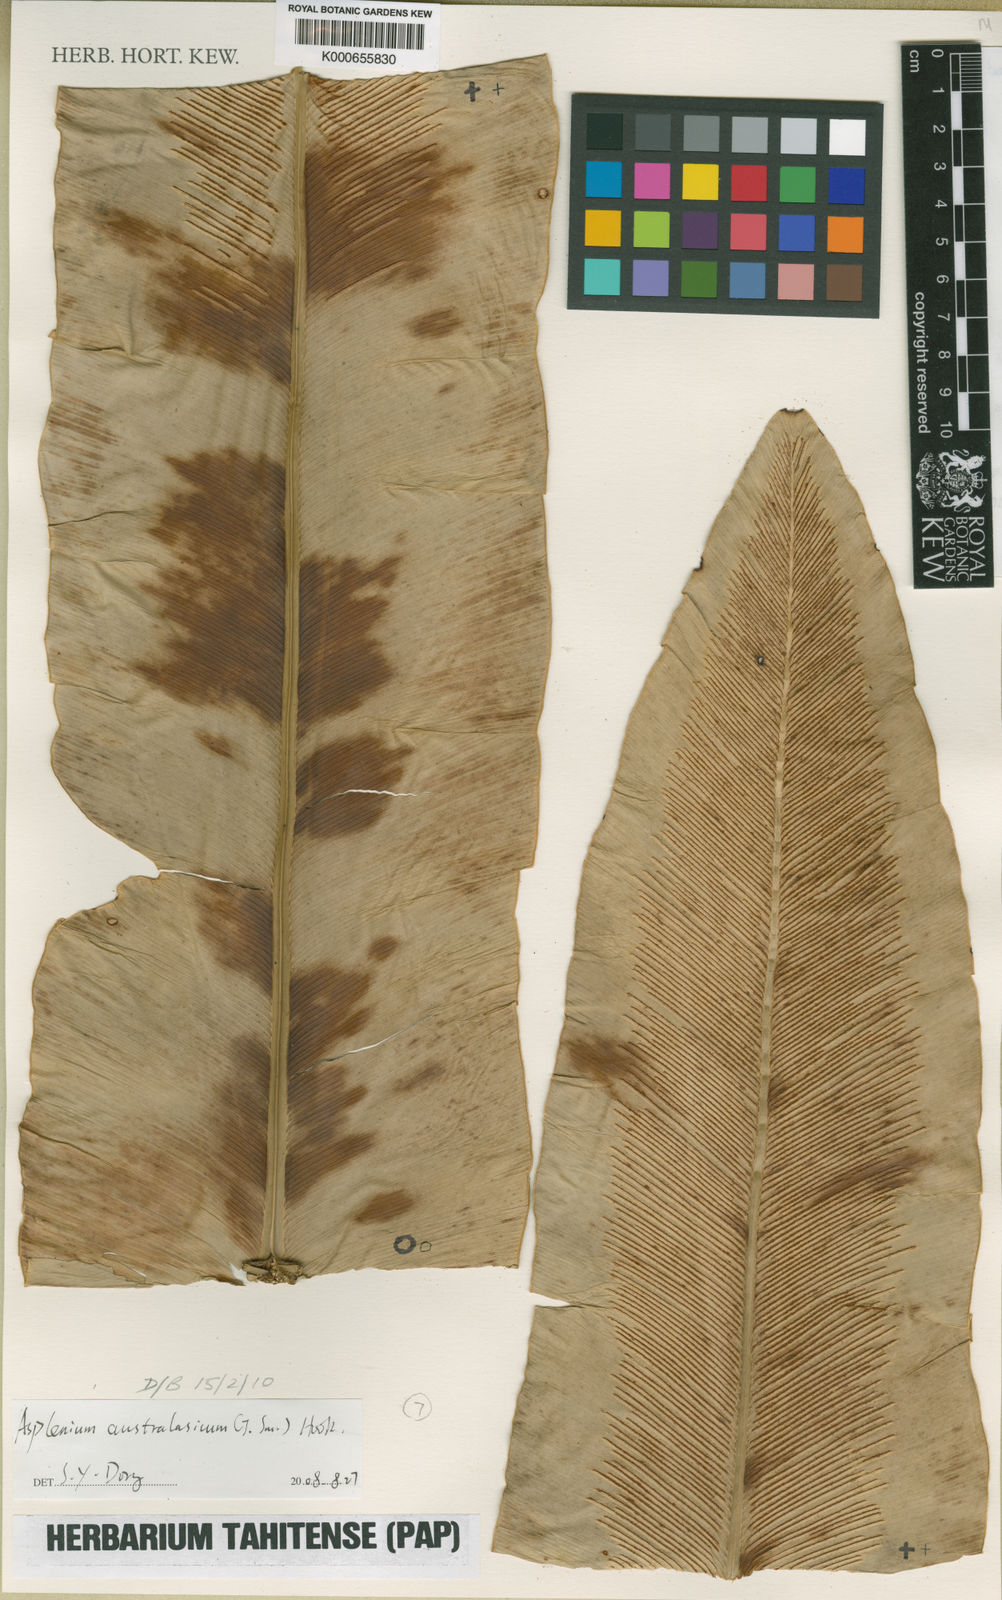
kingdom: Plantae
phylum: Tracheophyta
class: Polypodiopsida
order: Polypodiales
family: Aspleniaceae
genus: Asplenium
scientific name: Asplenium
